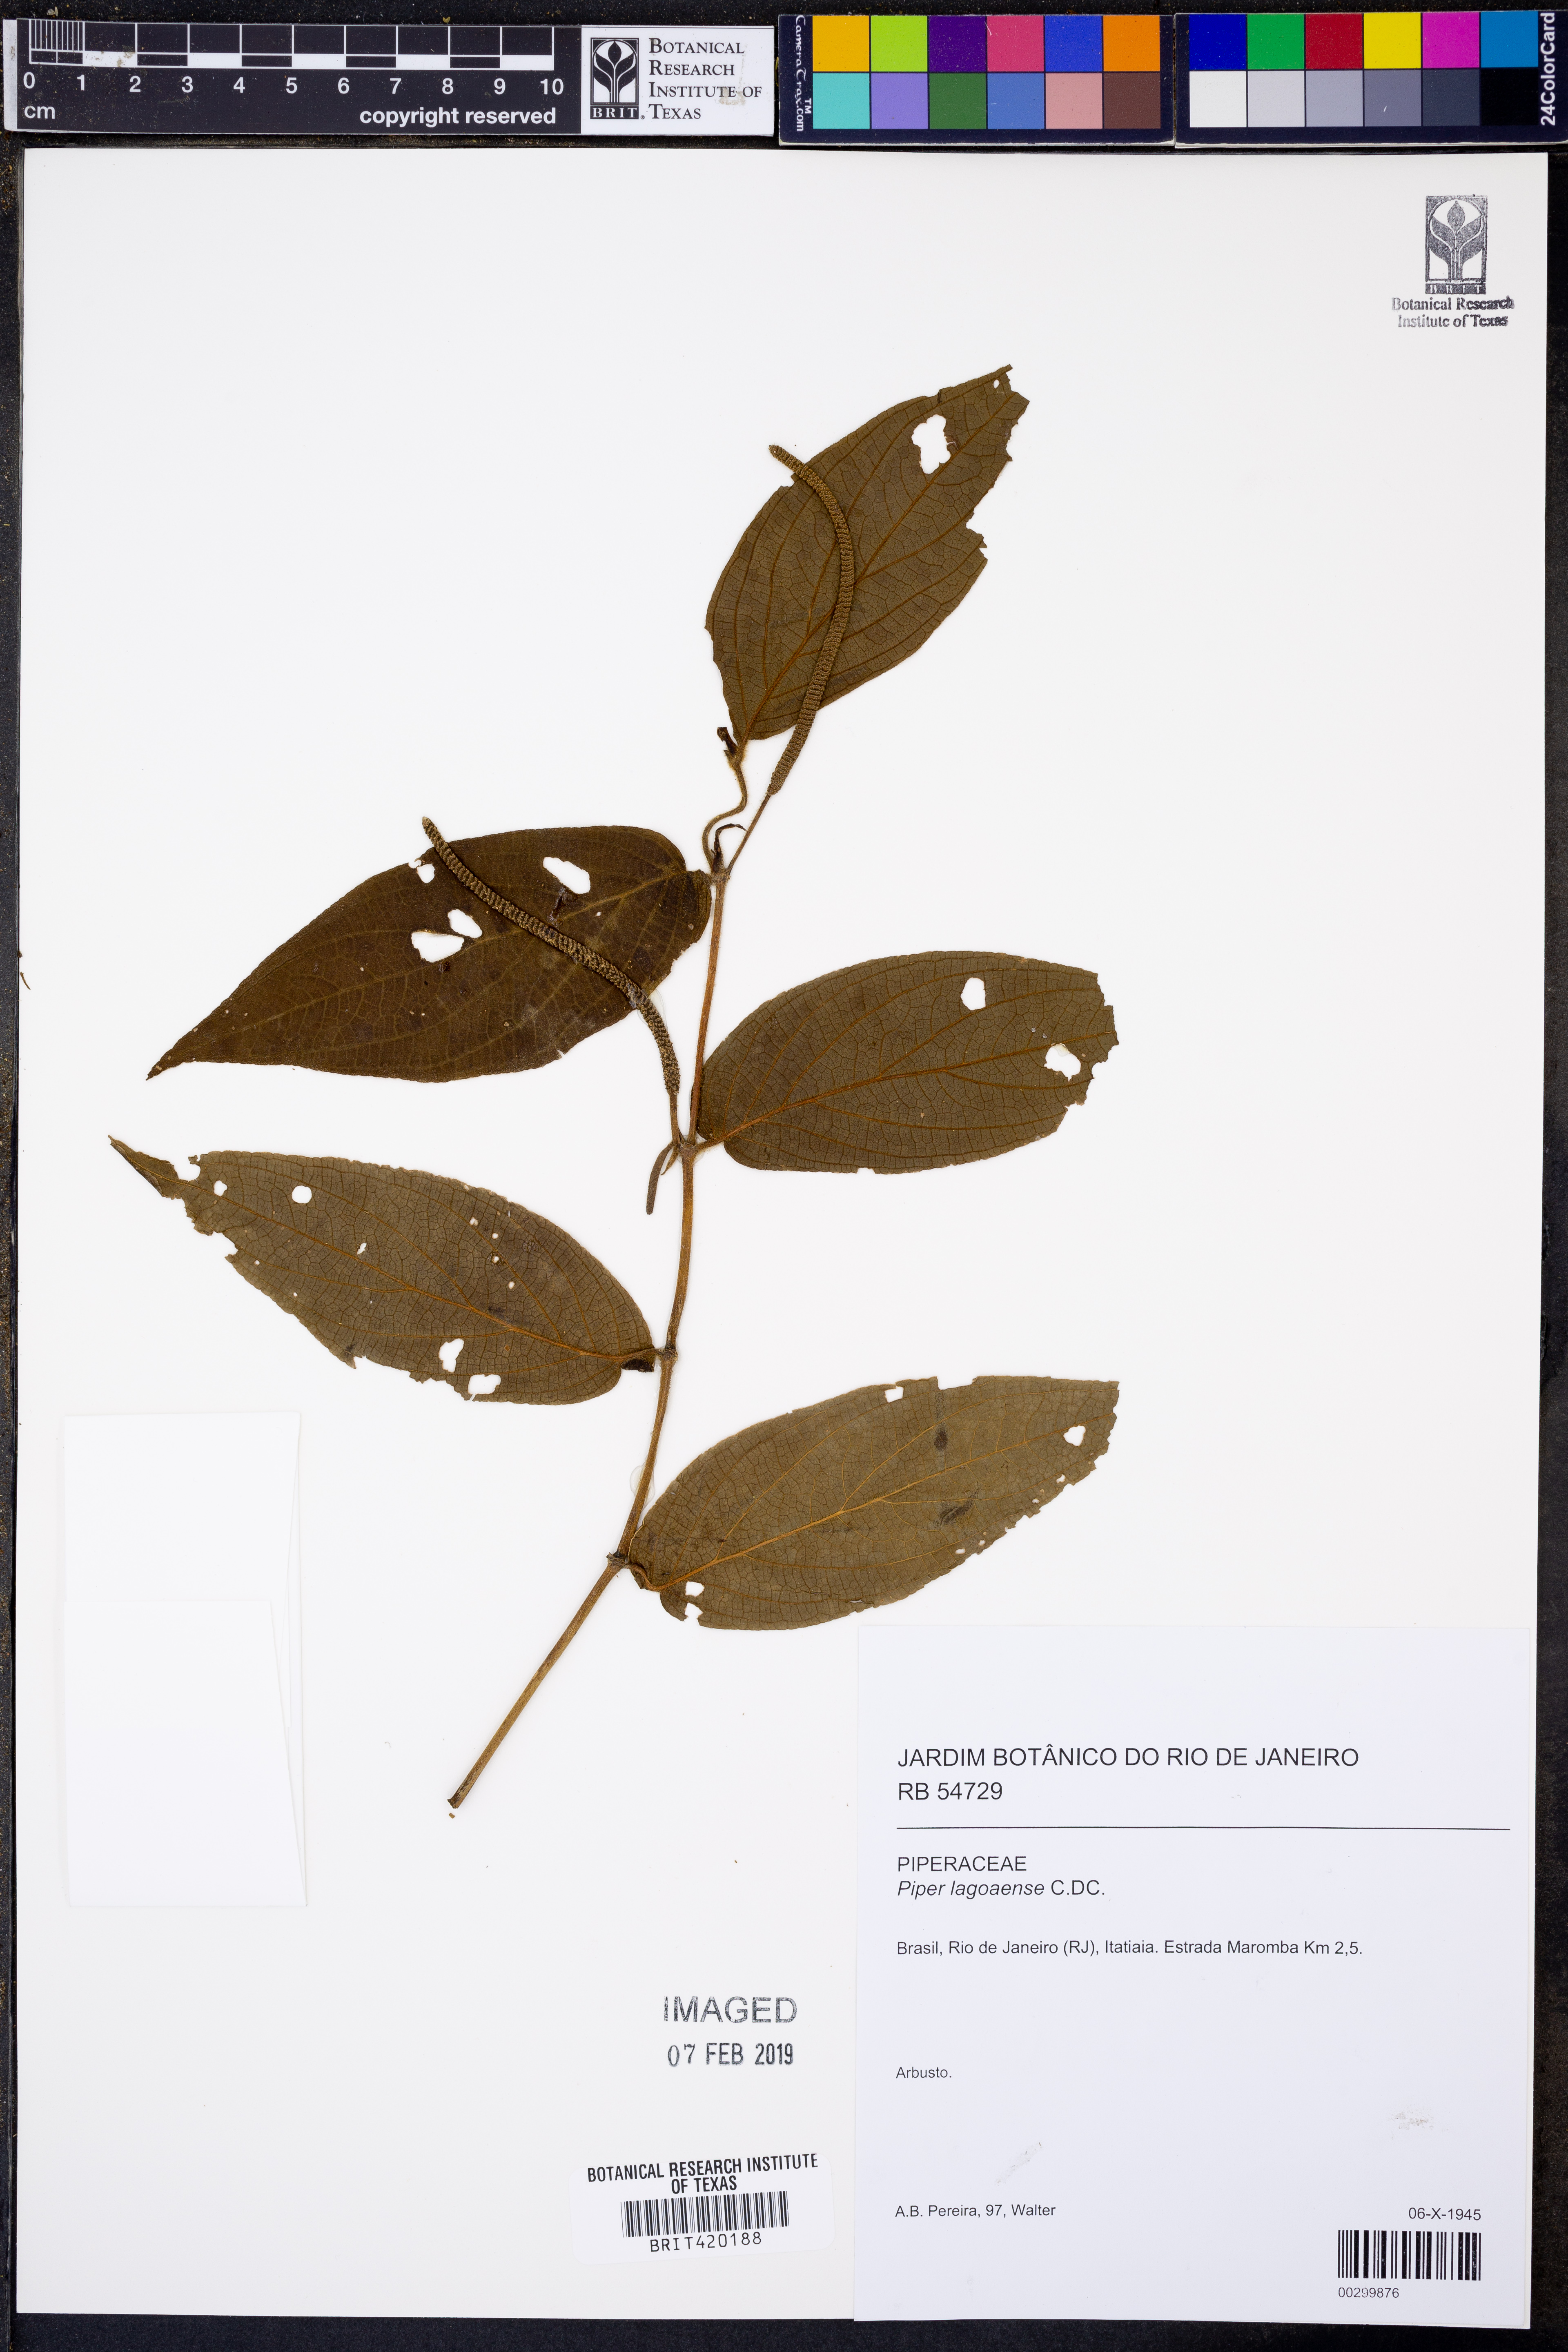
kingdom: Plantae
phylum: Tracheophyta
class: Magnoliopsida
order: Piperales
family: Piperaceae
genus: Piper
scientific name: Piper lagoaense
